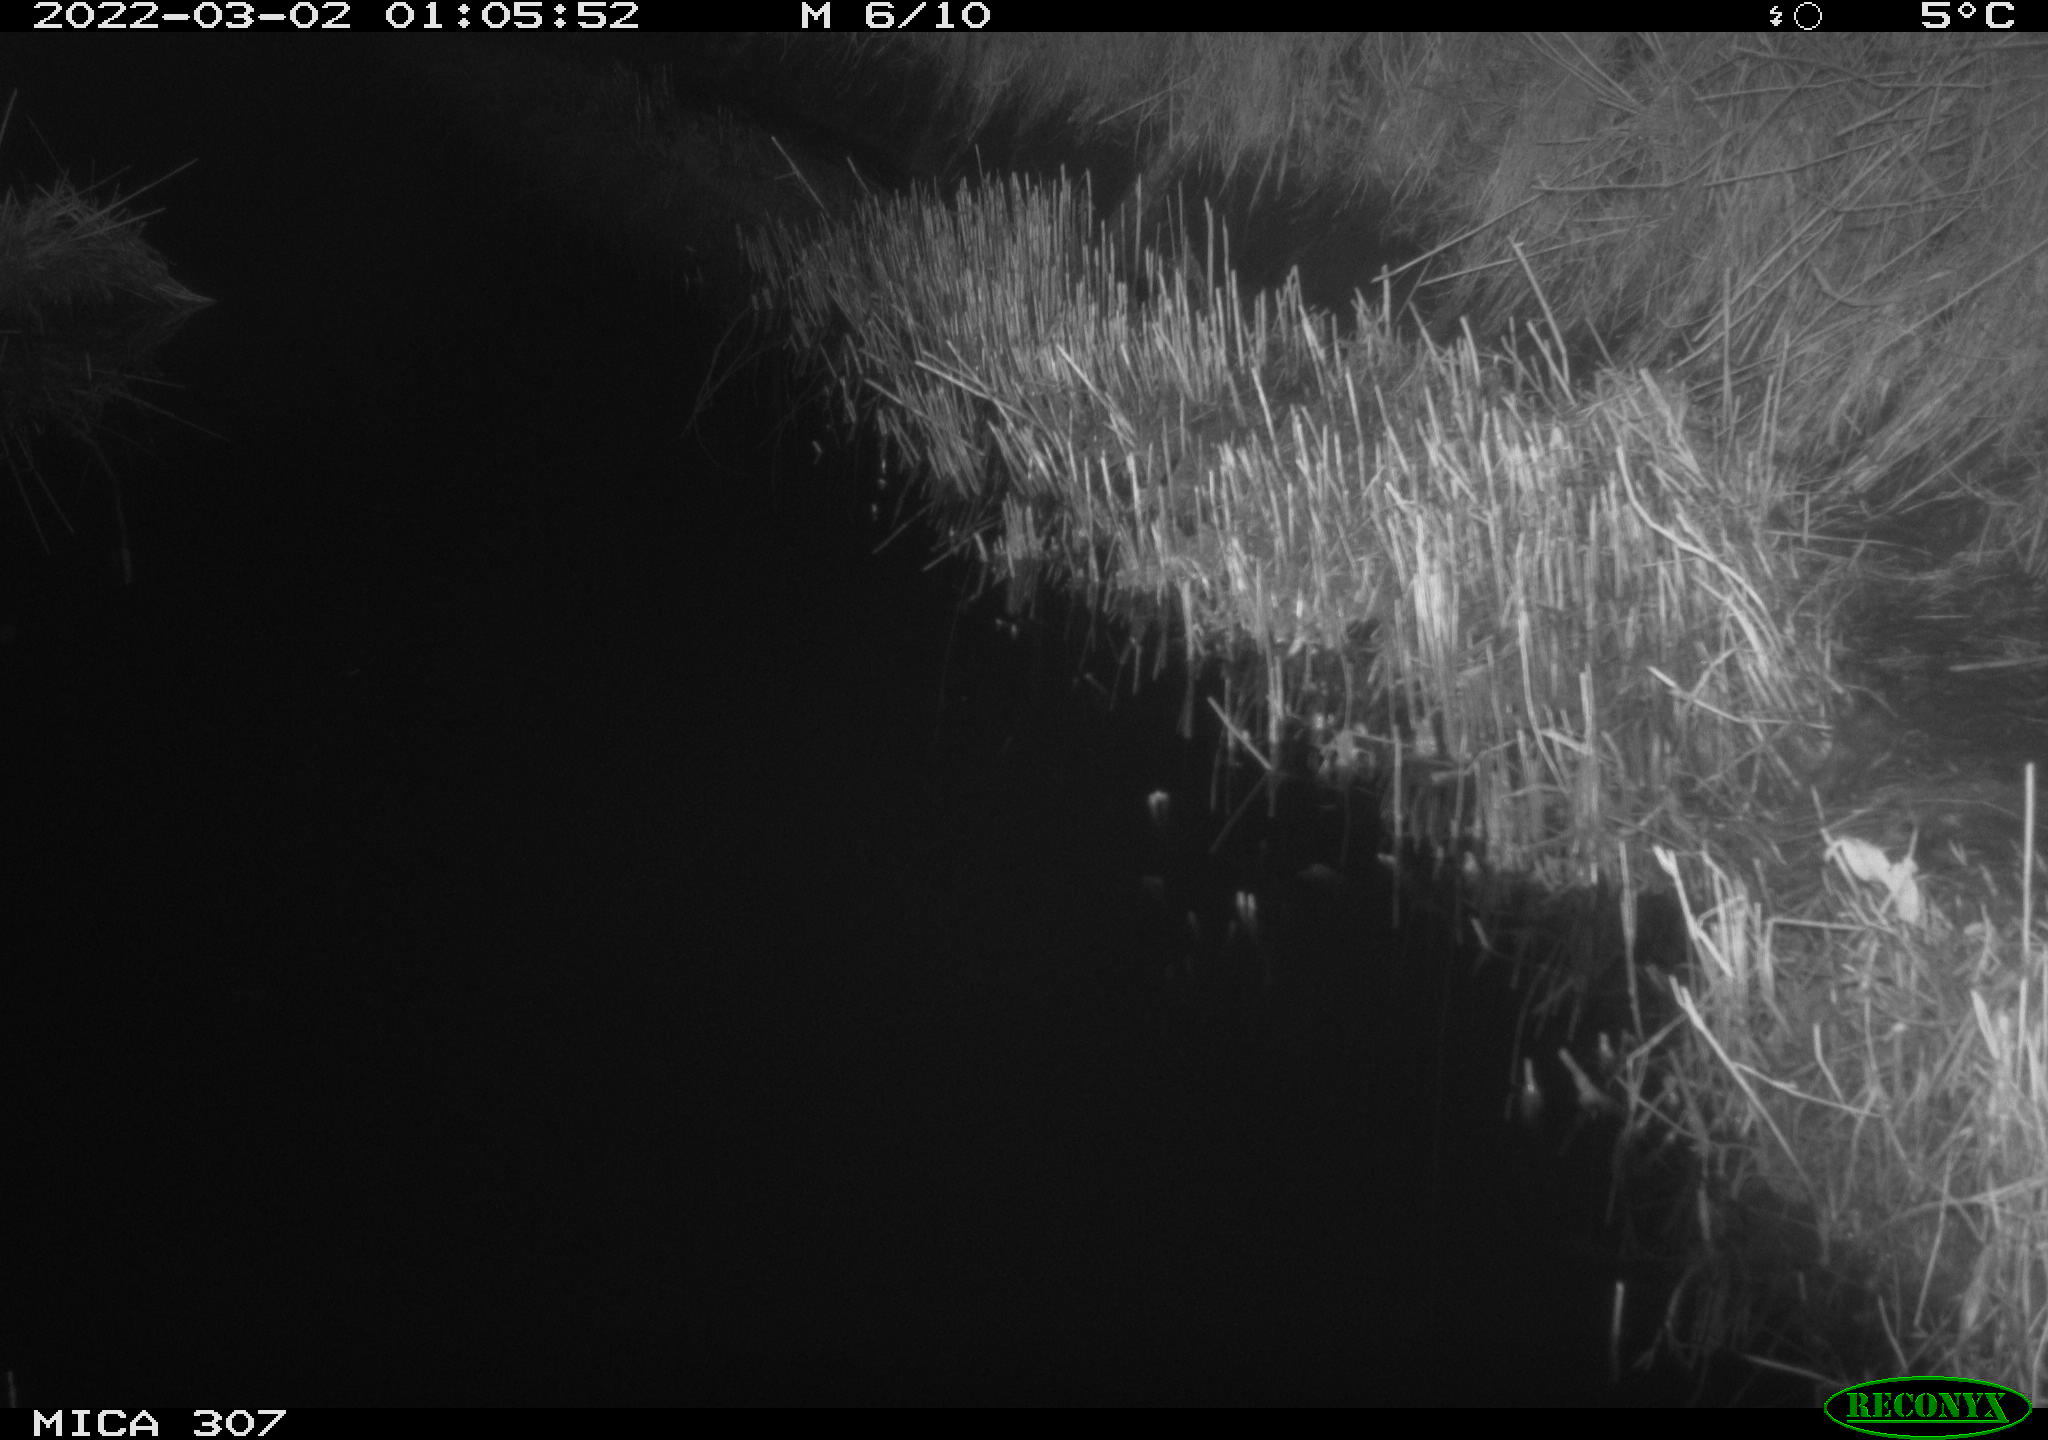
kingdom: Animalia
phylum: Chordata
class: Mammalia
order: Rodentia
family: Muridae
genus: Rattus
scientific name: Rattus norvegicus
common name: Brown rat
